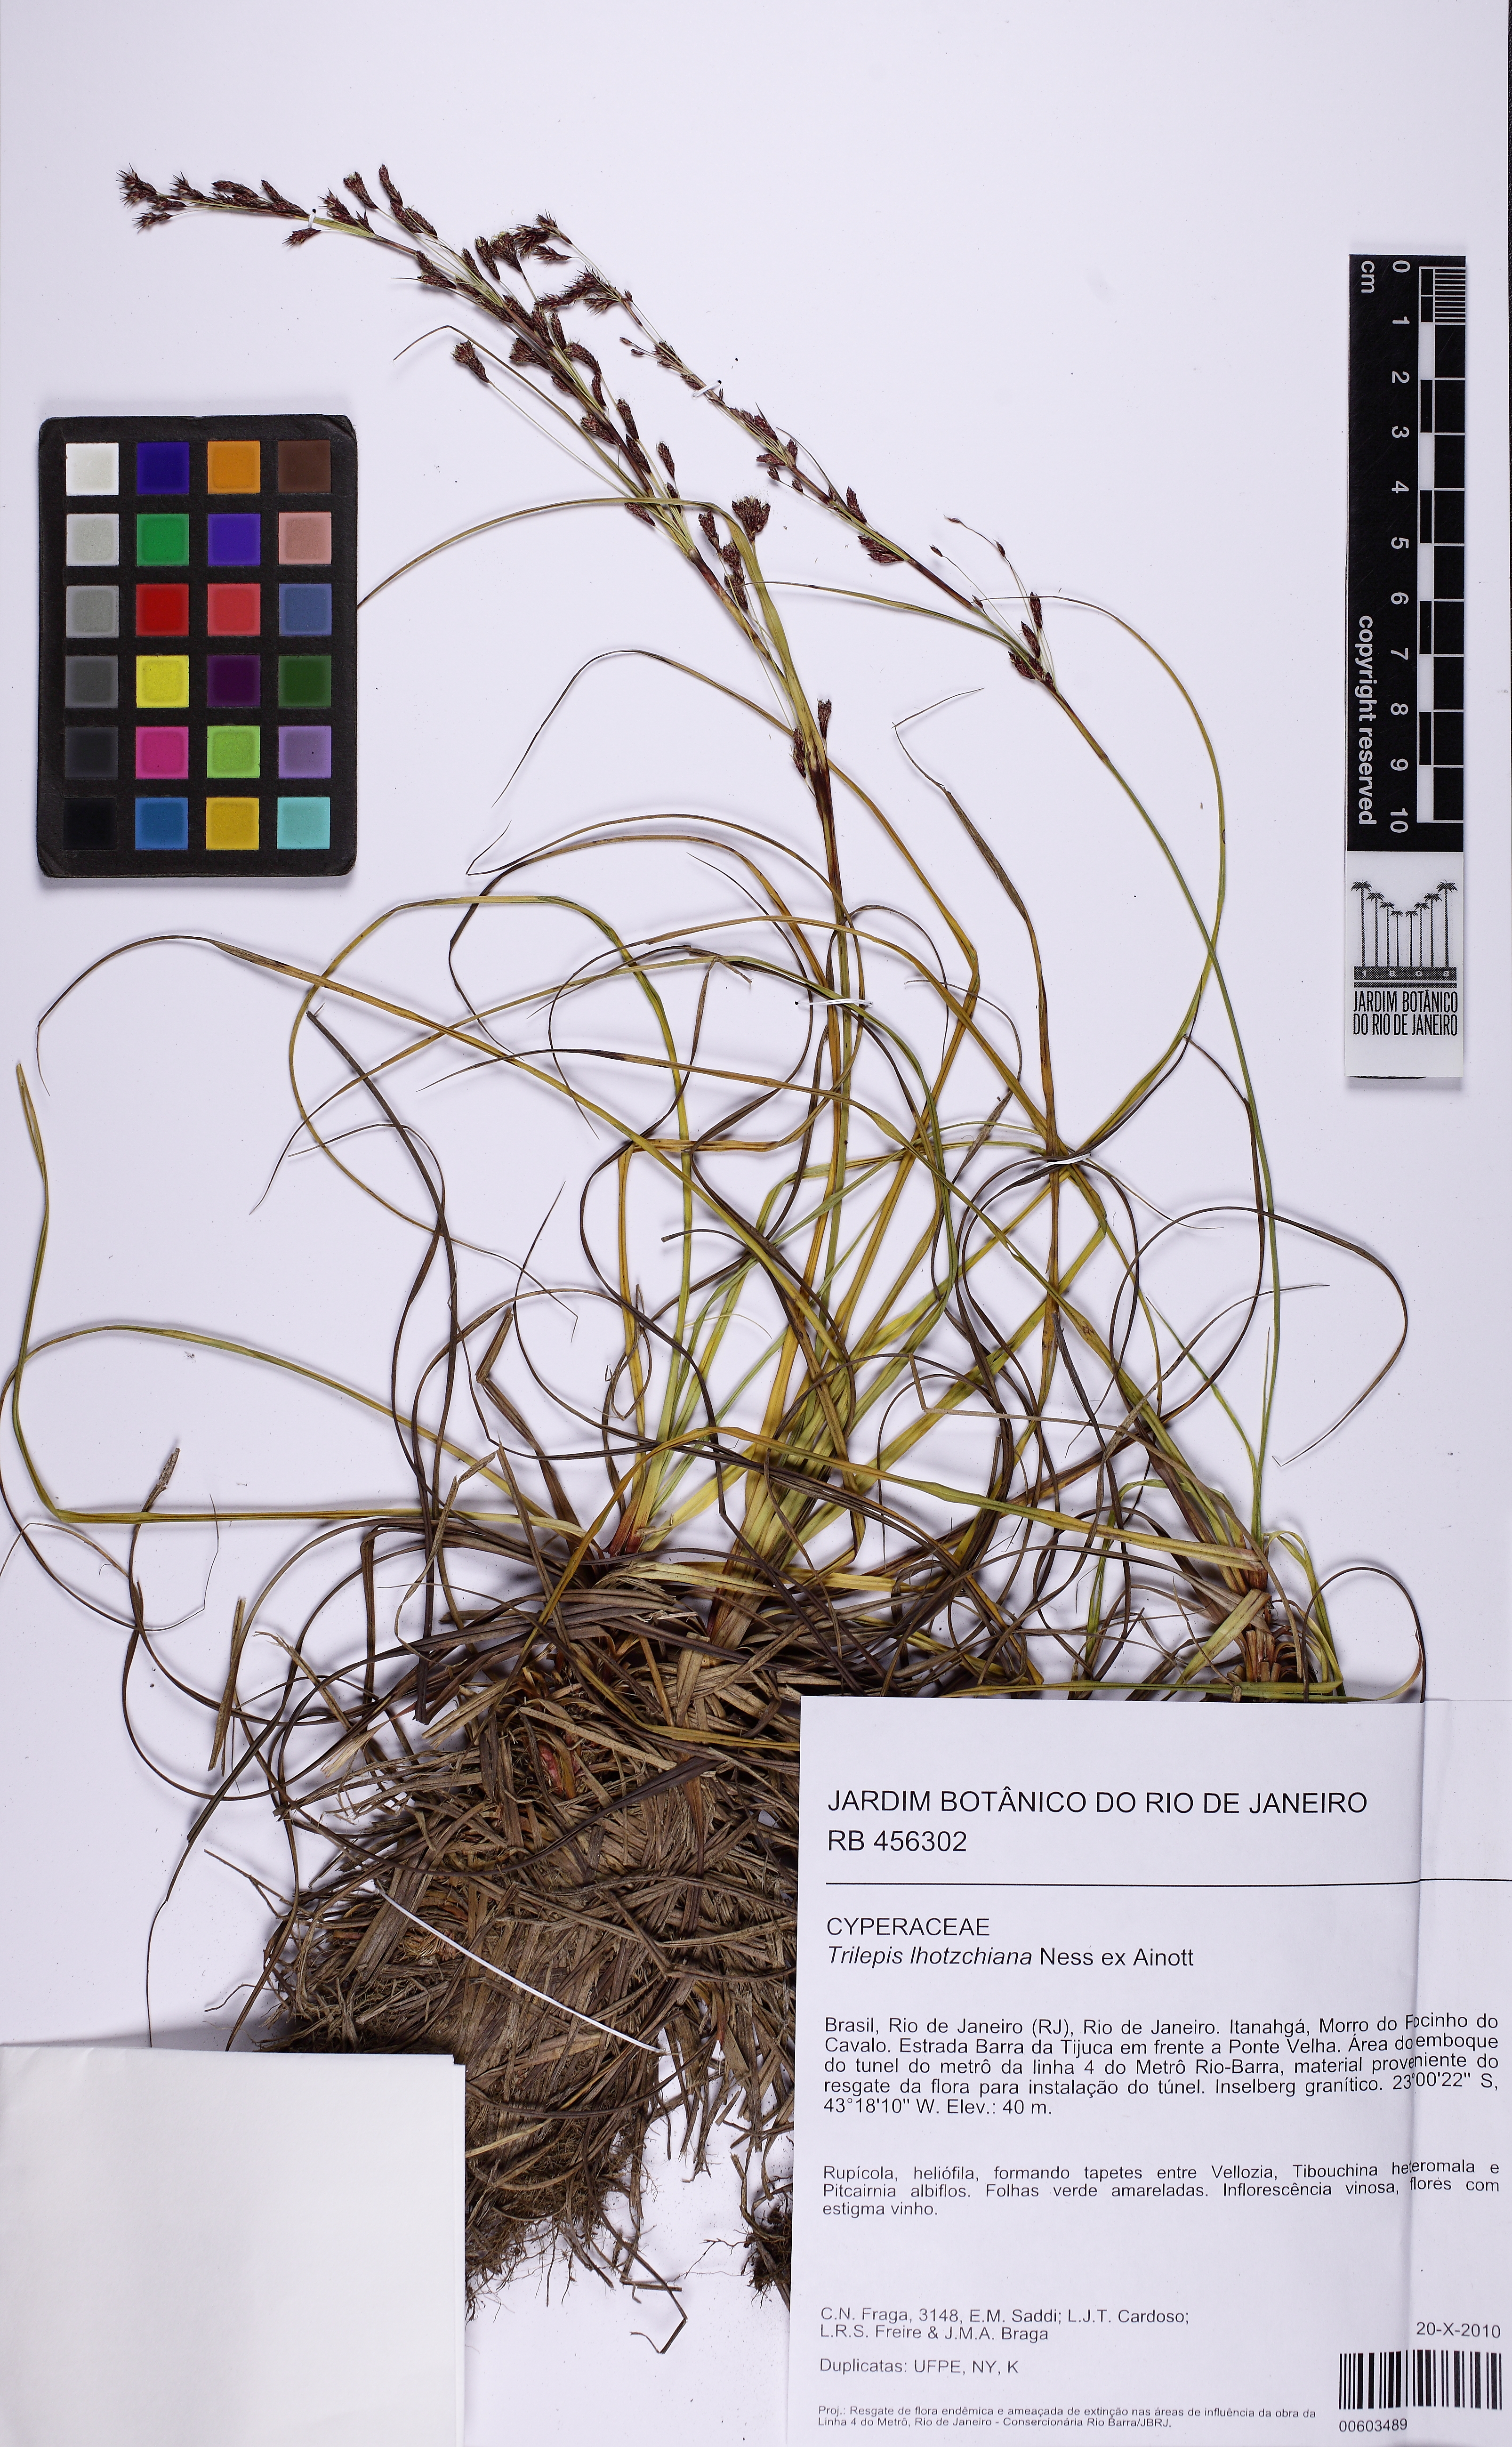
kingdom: Plantae
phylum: Tracheophyta
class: Liliopsida
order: Poales
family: Cyperaceae
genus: Trilepis
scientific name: Trilepis lhotzkiana
